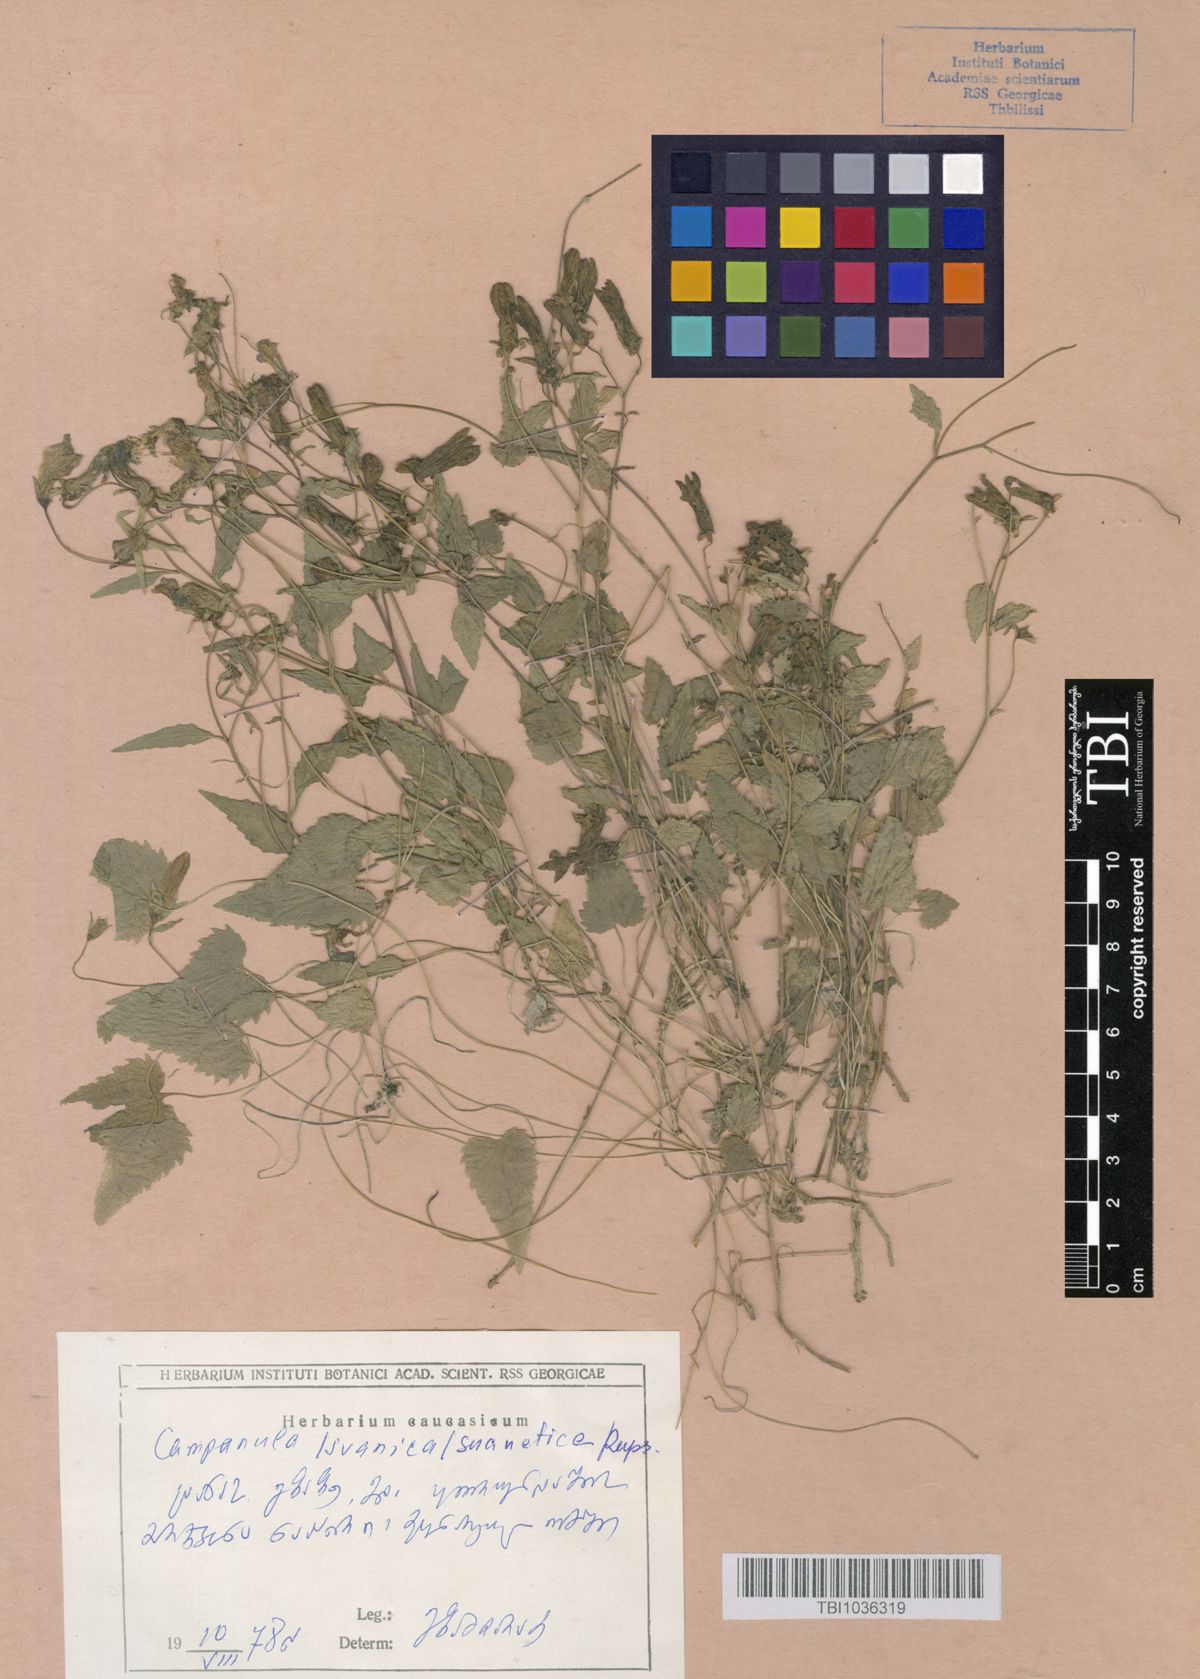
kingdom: Plantae
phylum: Tracheophyta
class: Magnoliopsida
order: Asterales
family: Campanulaceae
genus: Campanula
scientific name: Campanula suanetica
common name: Svanetian bellflower
